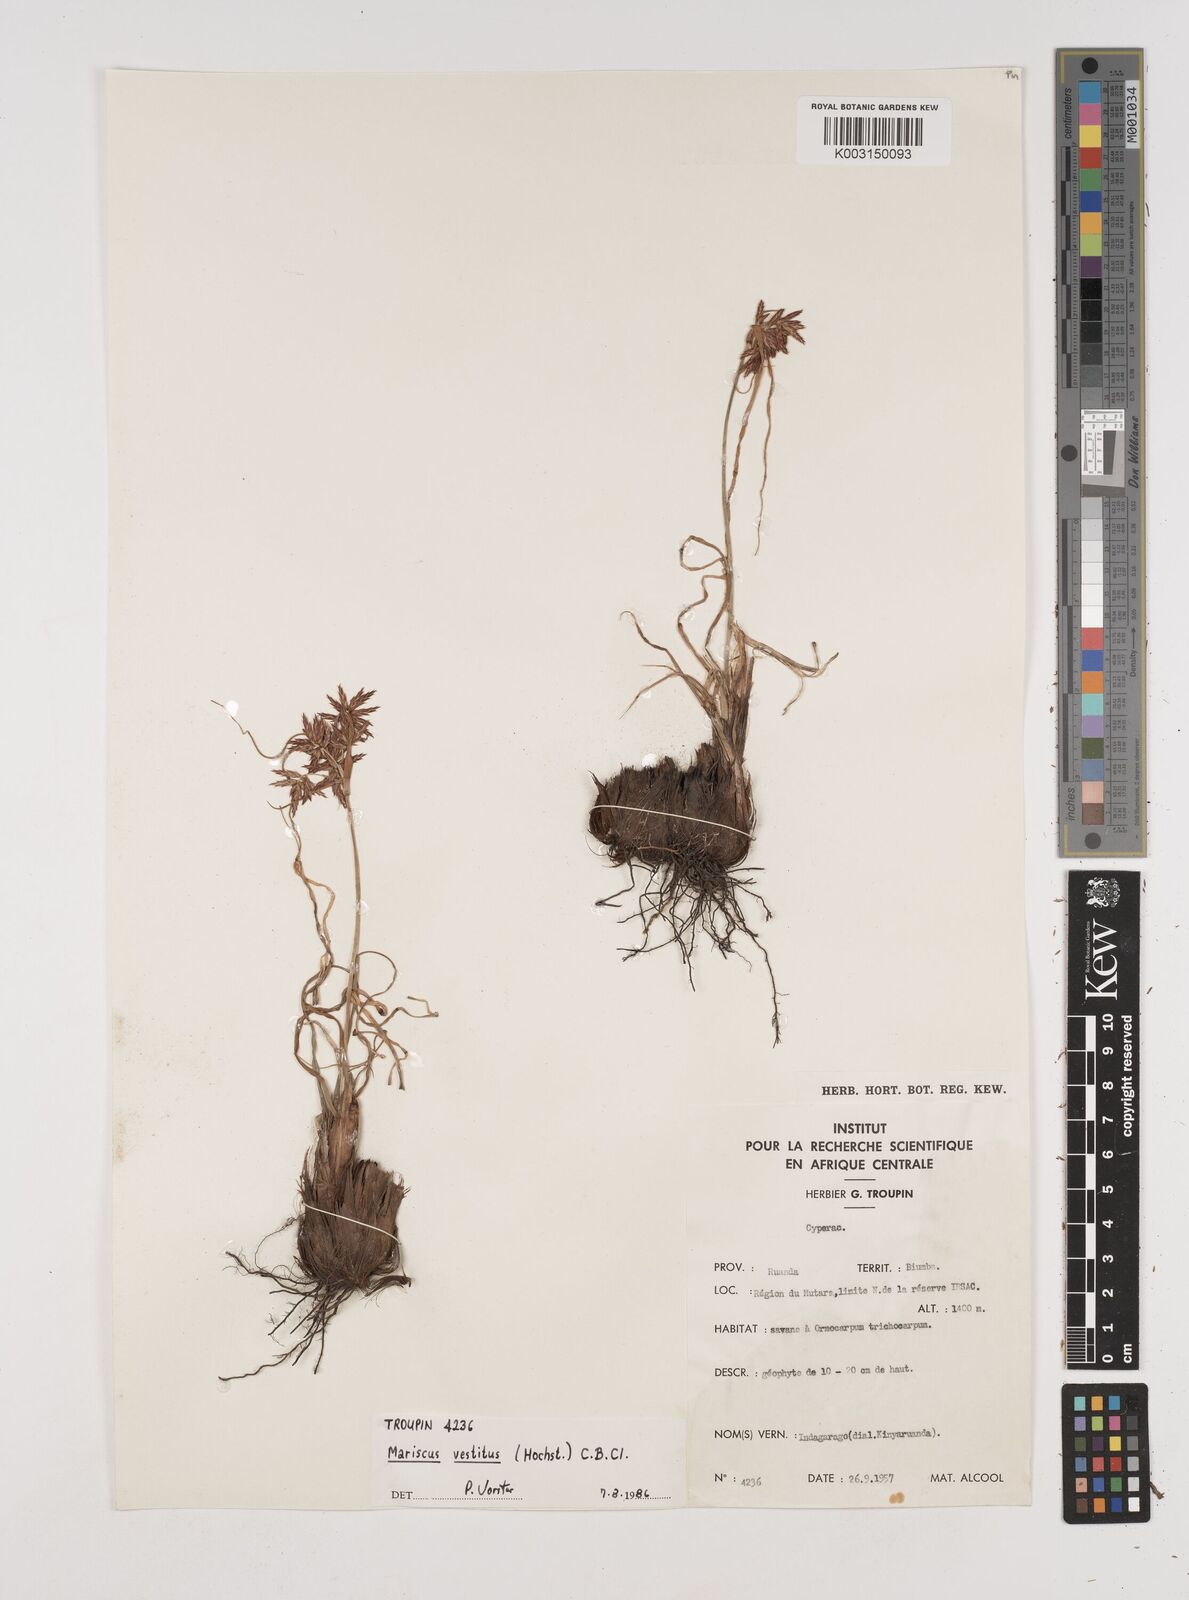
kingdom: Plantae
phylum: Tracheophyta
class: Liliopsida
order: Poales
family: Cyperaceae
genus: Cyperus
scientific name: Cyperus vestitus
